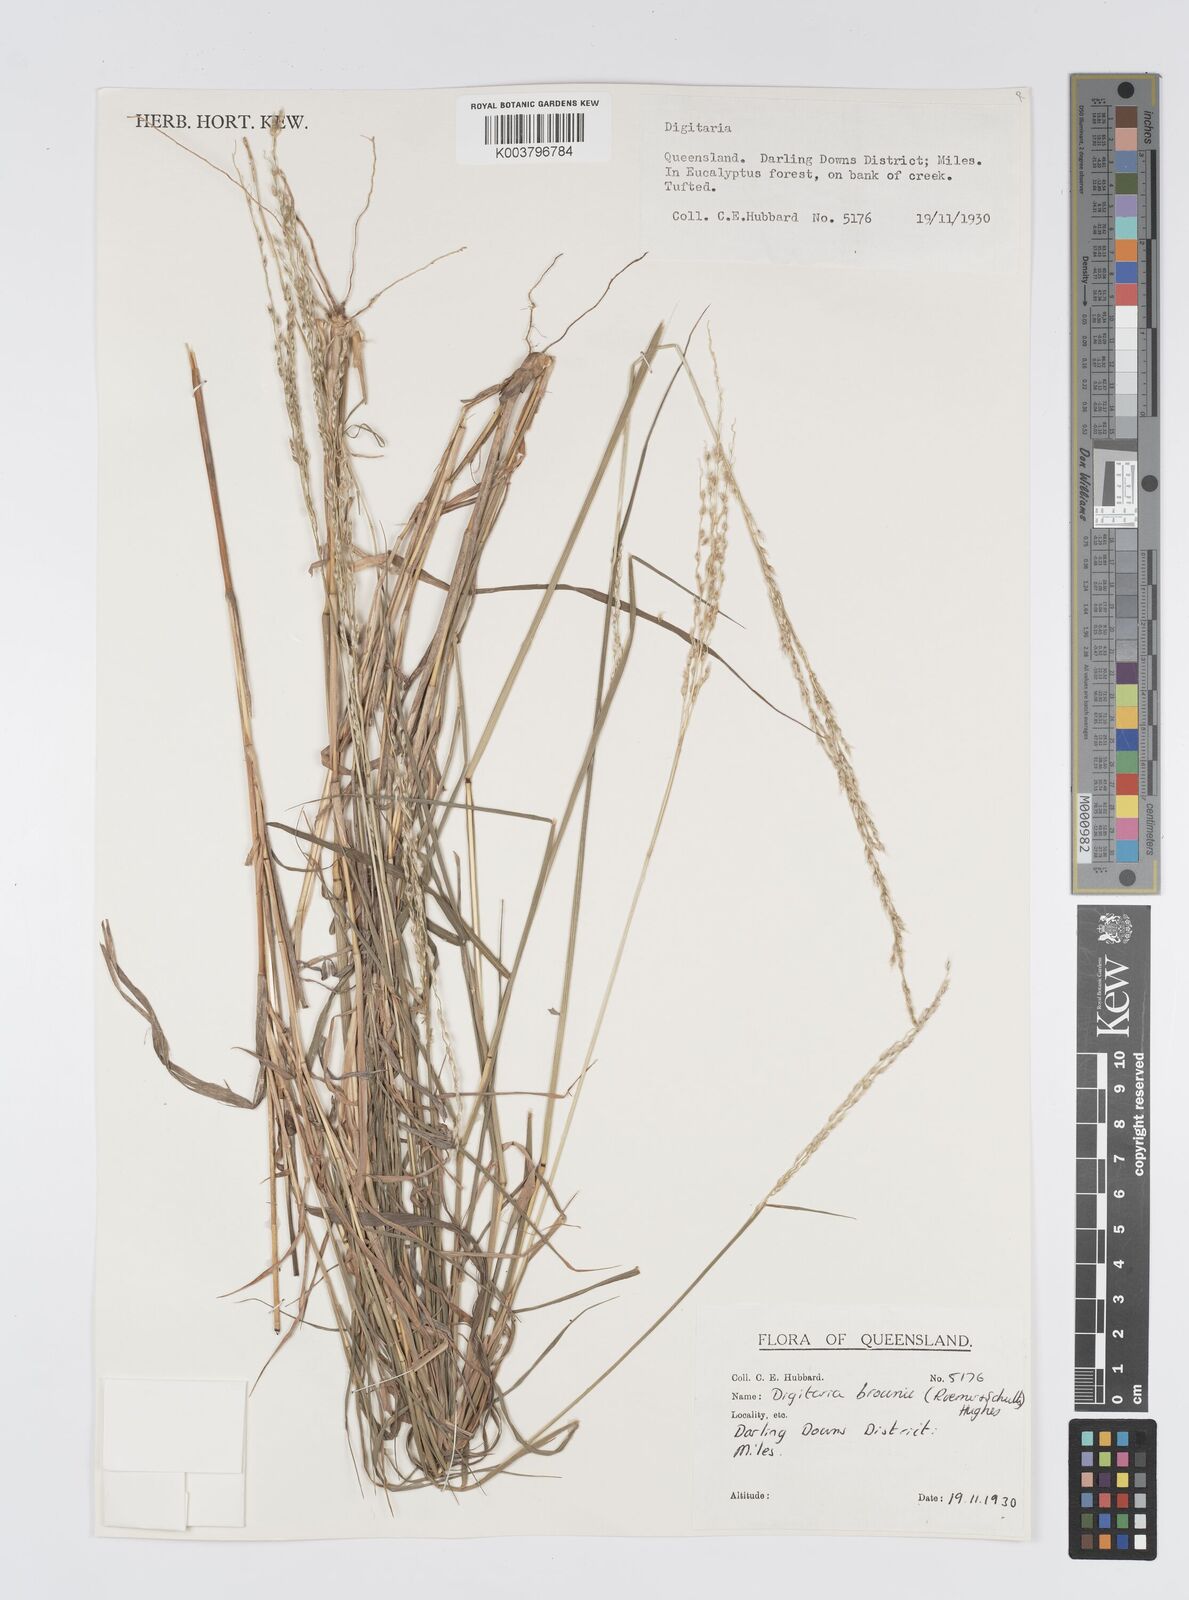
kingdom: Plantae
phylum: Tracheophyta
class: Liliopsida
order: Poales
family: Poaceae
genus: Digitaria
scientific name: Digitaria brownii
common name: Cotton grass
